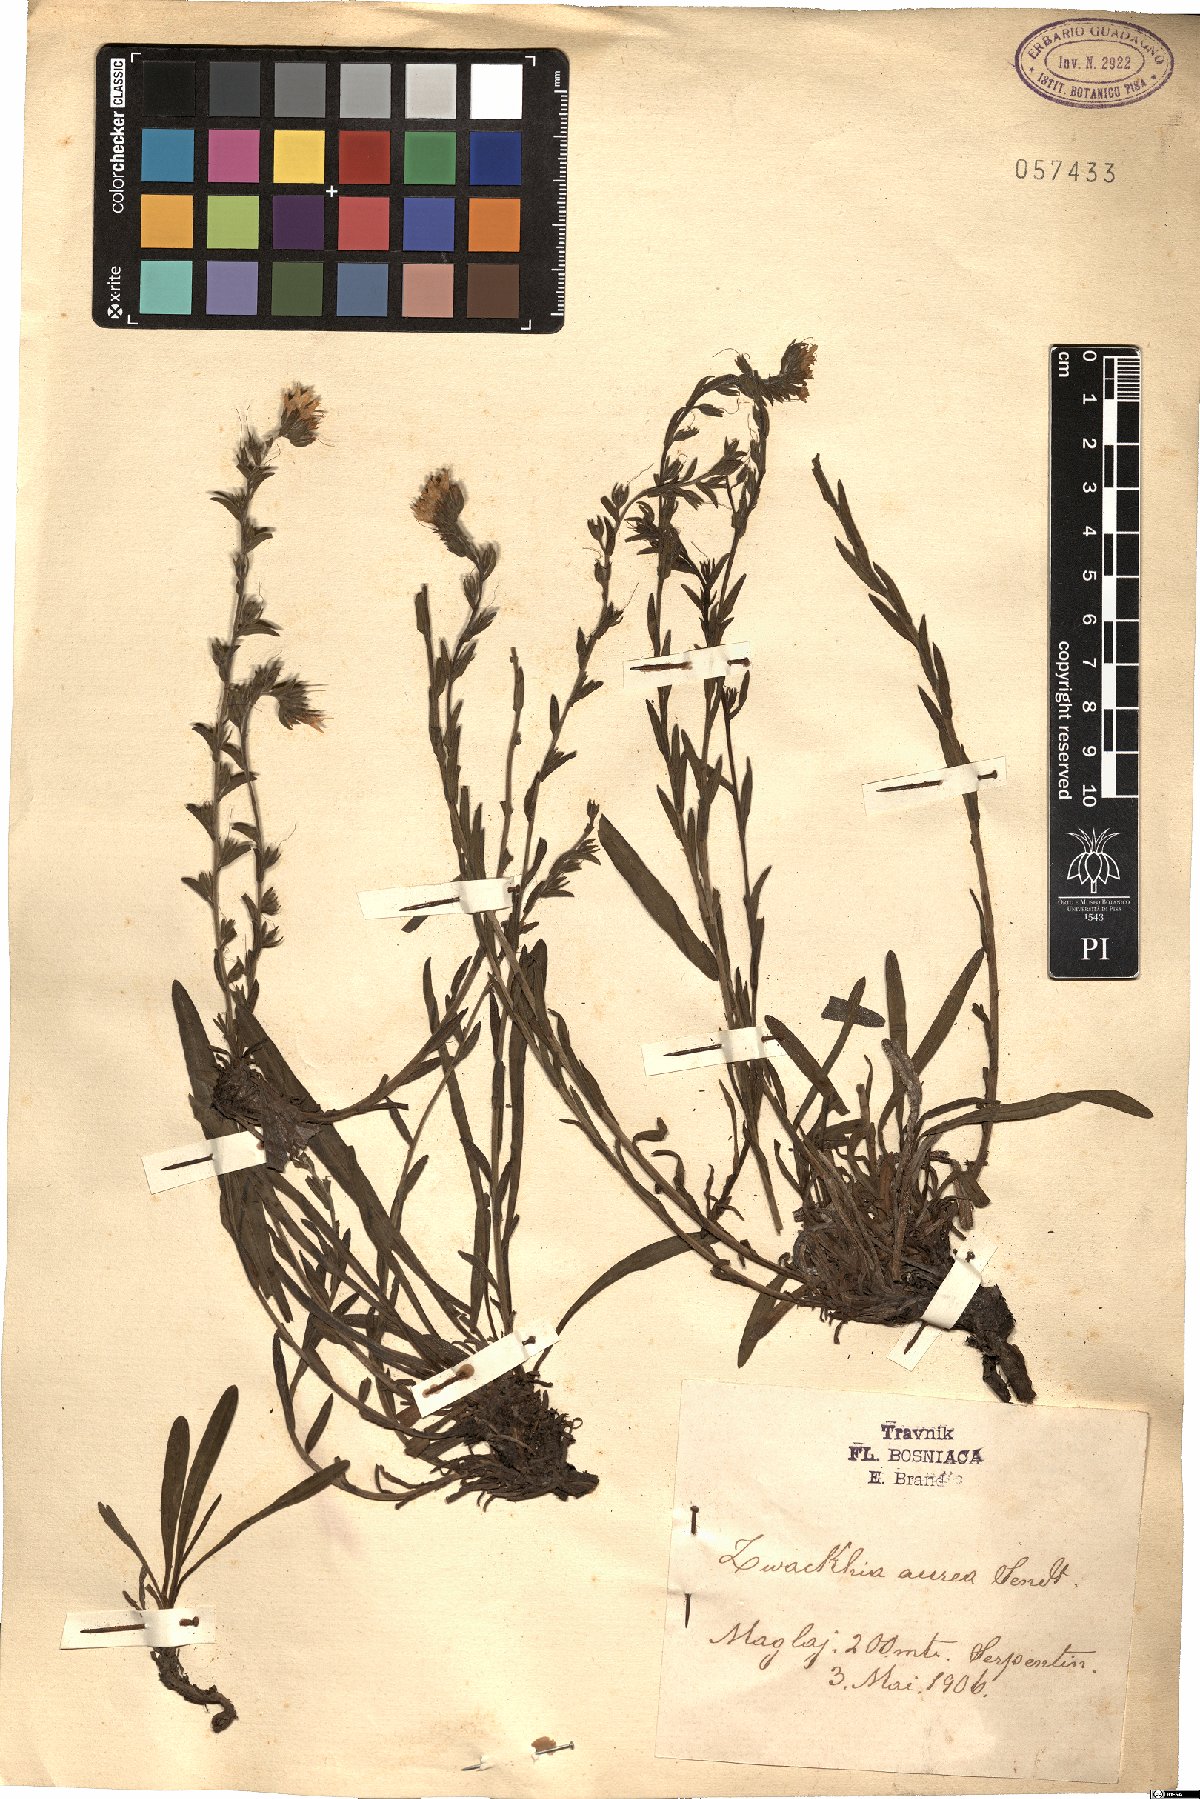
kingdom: Plantae
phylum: Tracheophyta
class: Magnoliopsida
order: Boraginales
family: Boraginaceae
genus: Halacsya
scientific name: Halacsya sendtneri
